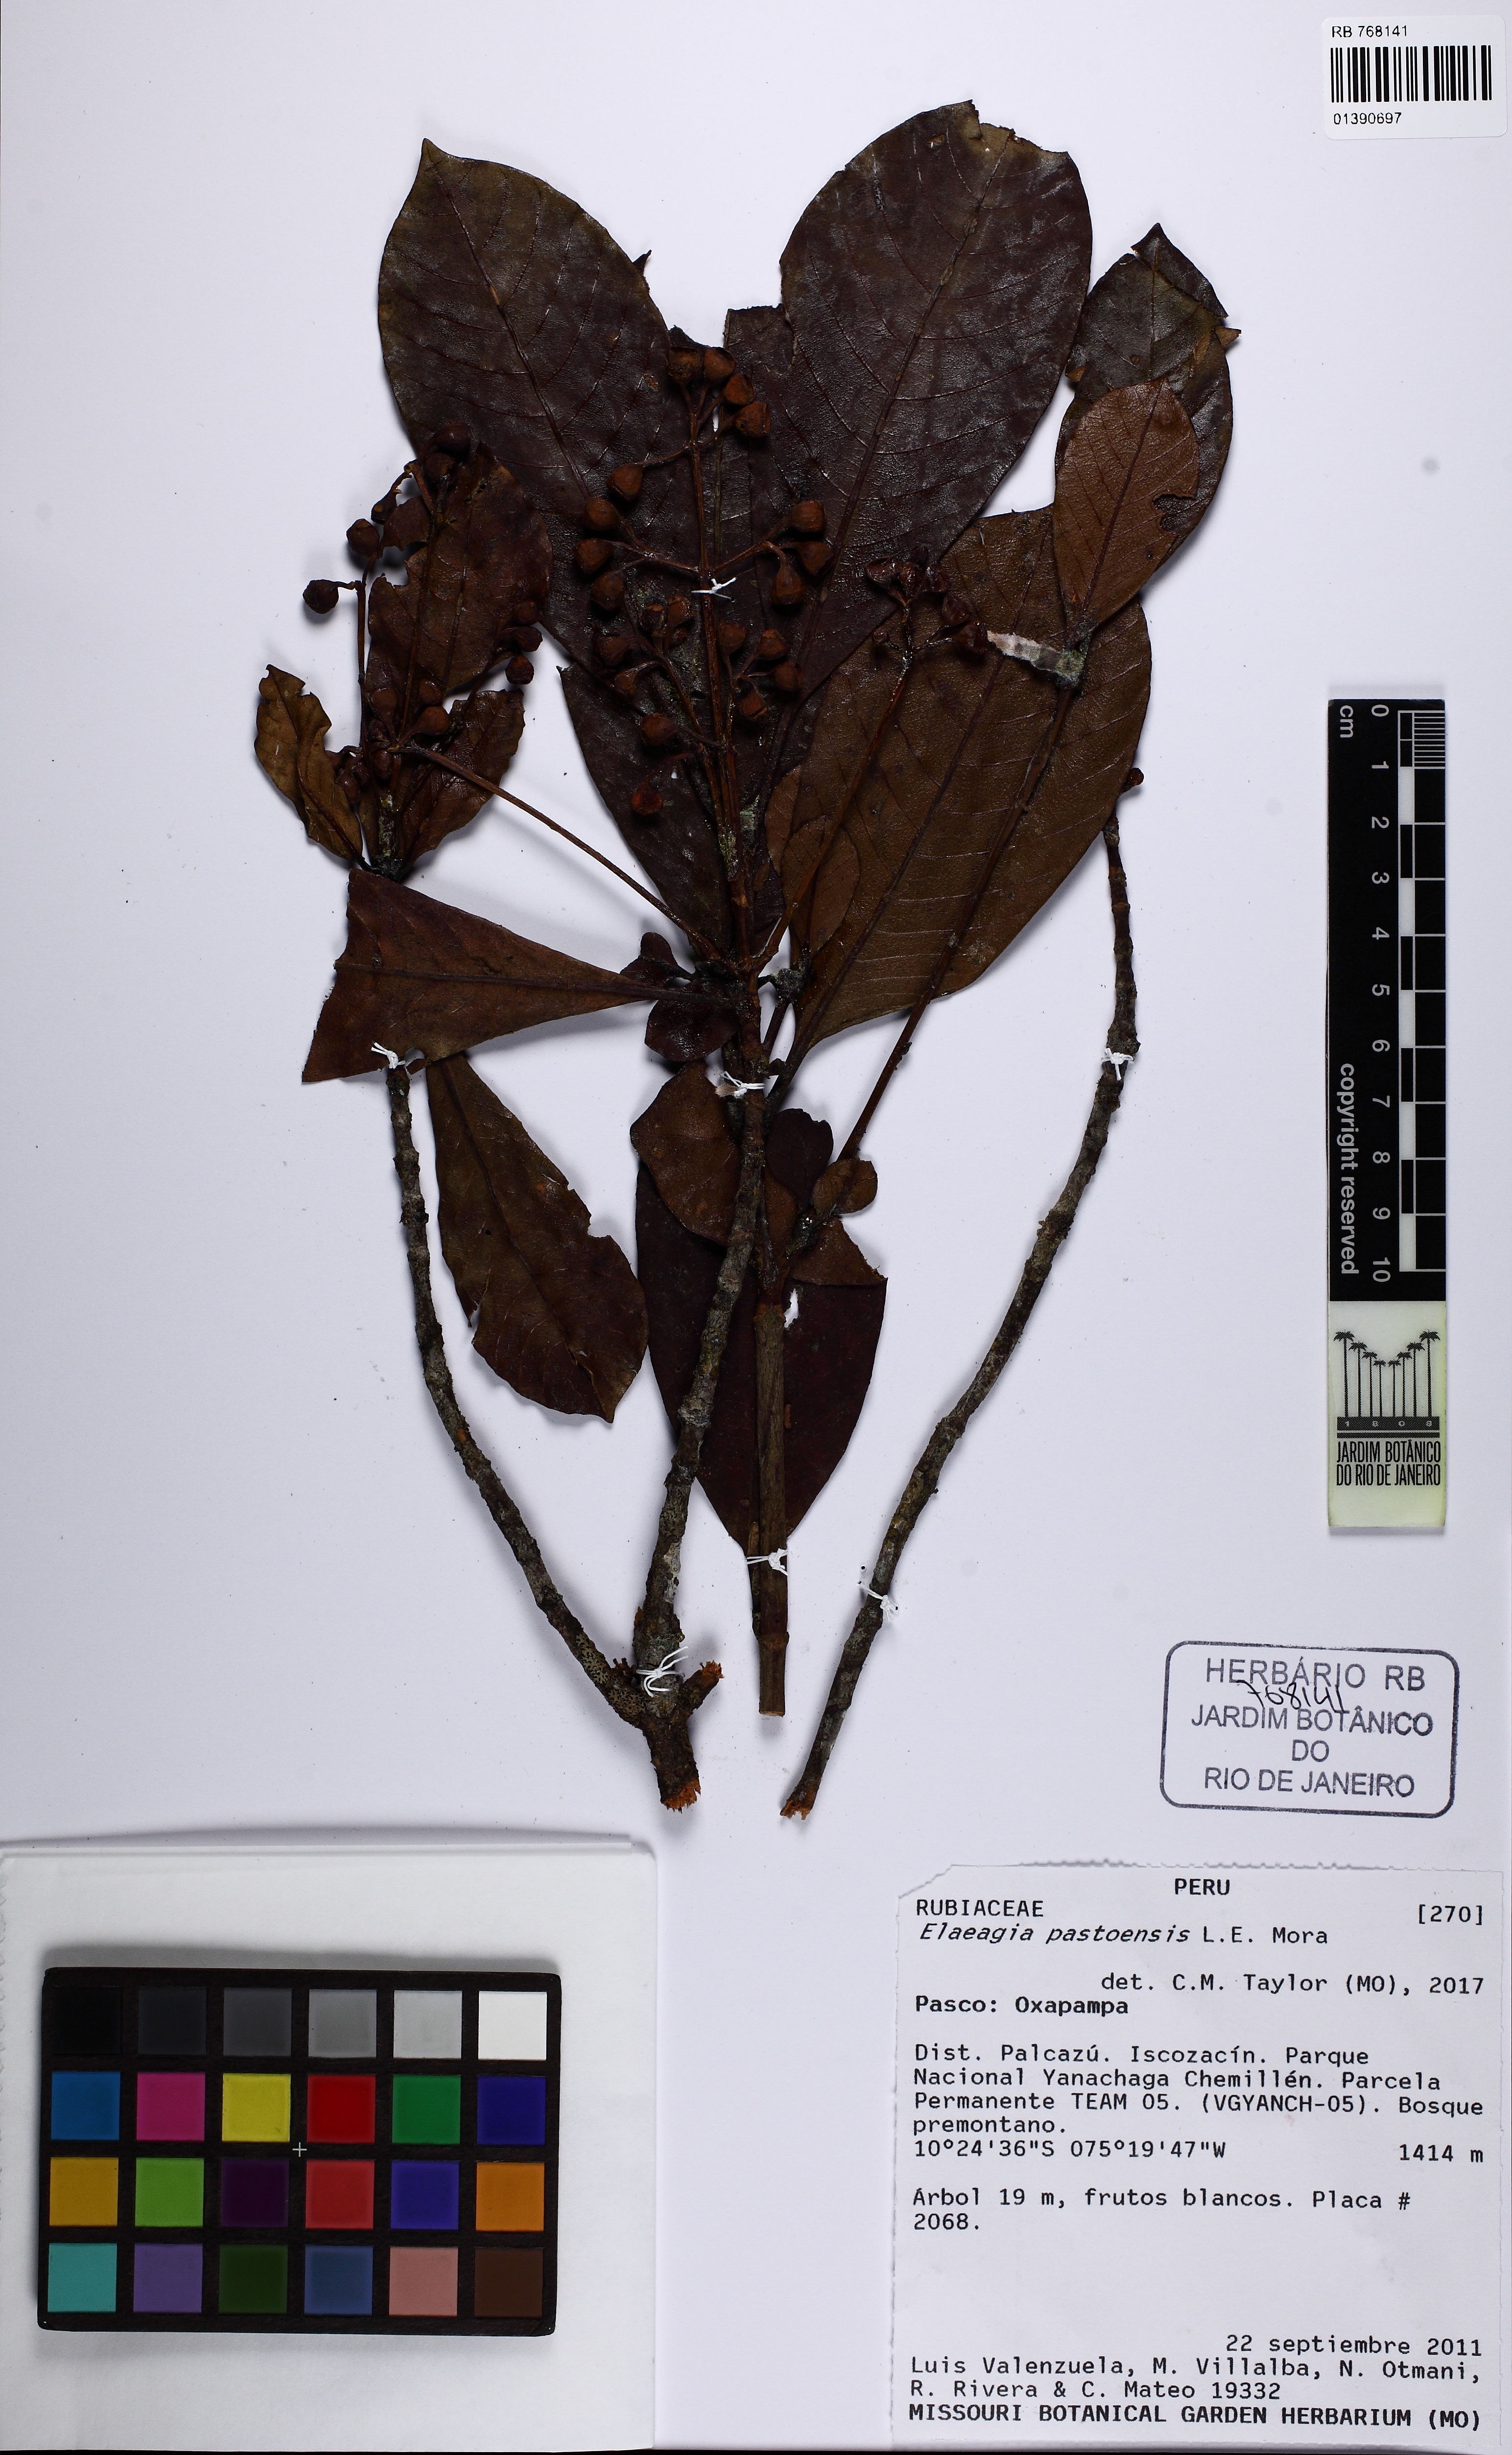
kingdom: Plantae
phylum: Tracheophyta
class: Magnoliopsida
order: Gentianales
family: Rubiaceae
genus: Elaeagia
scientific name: Elaeagia pastoensis
